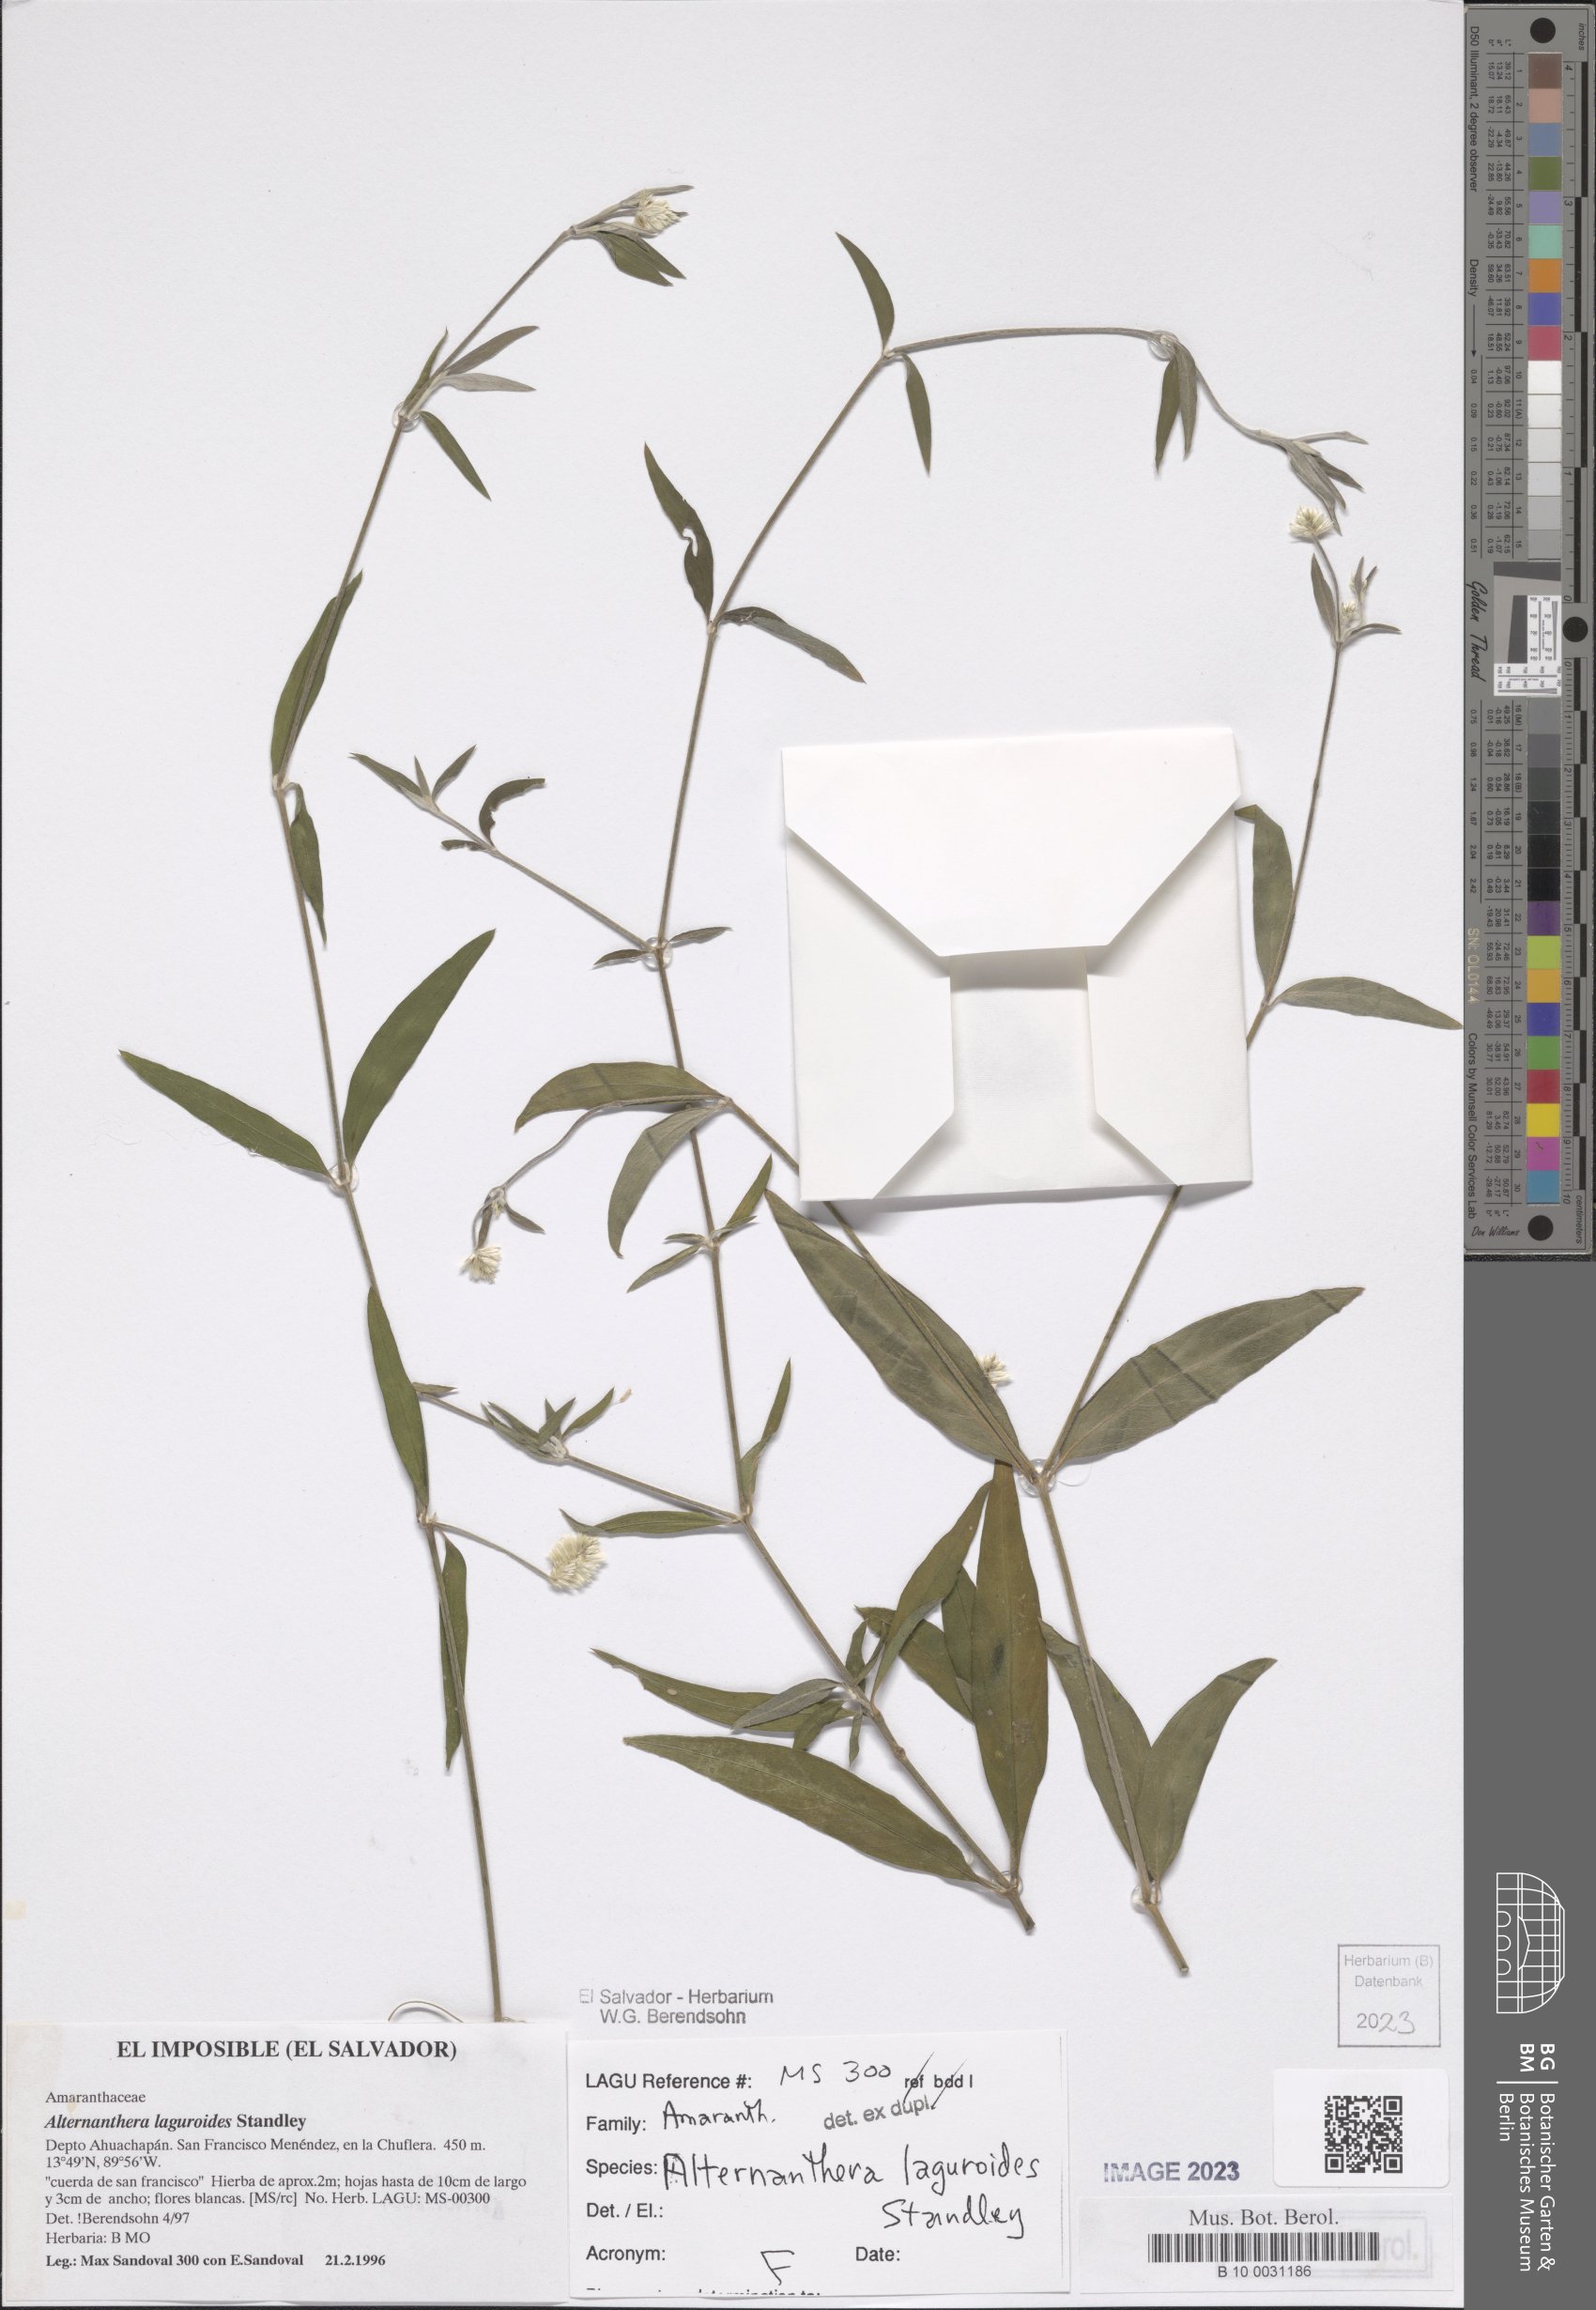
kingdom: Plantae
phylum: Tracheophyta
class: Magnoliopsida
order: Caryophyllales
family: Amaranthaceae
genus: Alternanthera
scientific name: Alternanthera laguroides
